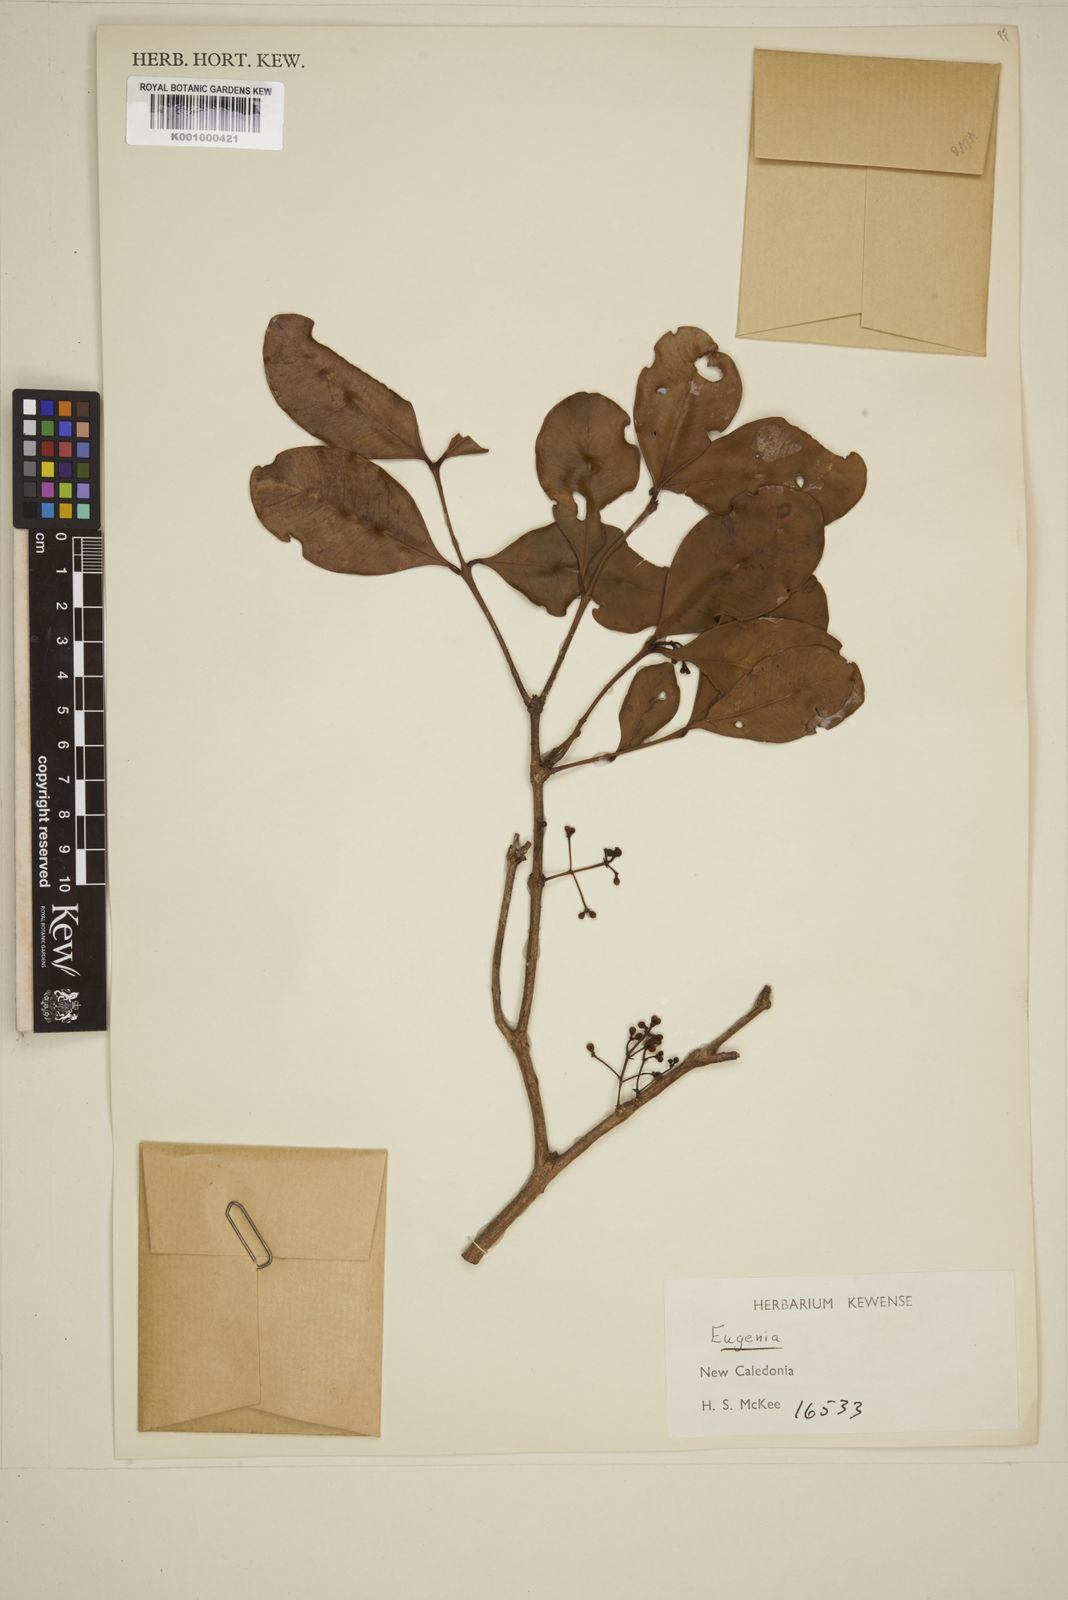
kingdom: Plantae
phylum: Tracheophyta
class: Magnoliopsida
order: Myrtales
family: Myrtaceae
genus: Eugenia
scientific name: Eugenia
